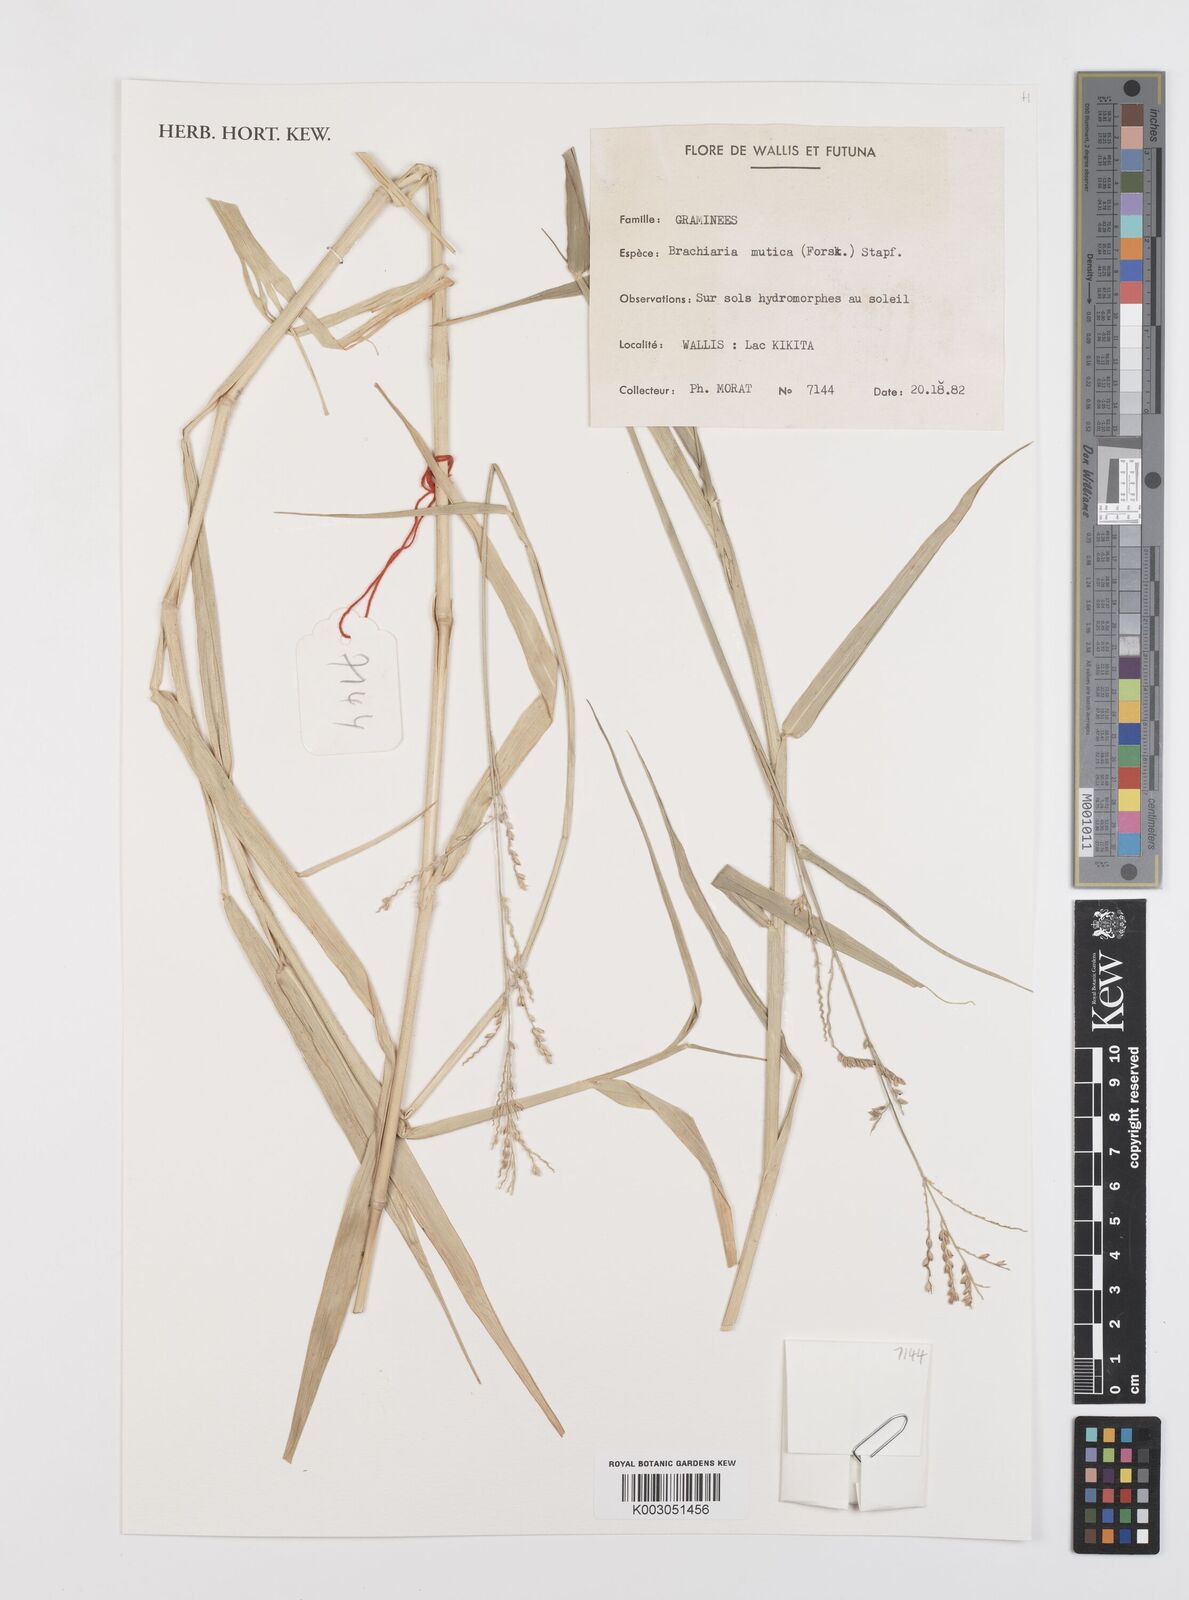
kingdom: Plantae
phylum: Tracheophyta
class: Liliopsida
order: Poales
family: Poaceae
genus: Urochloa
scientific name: Urochloa mutica
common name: Para grass
